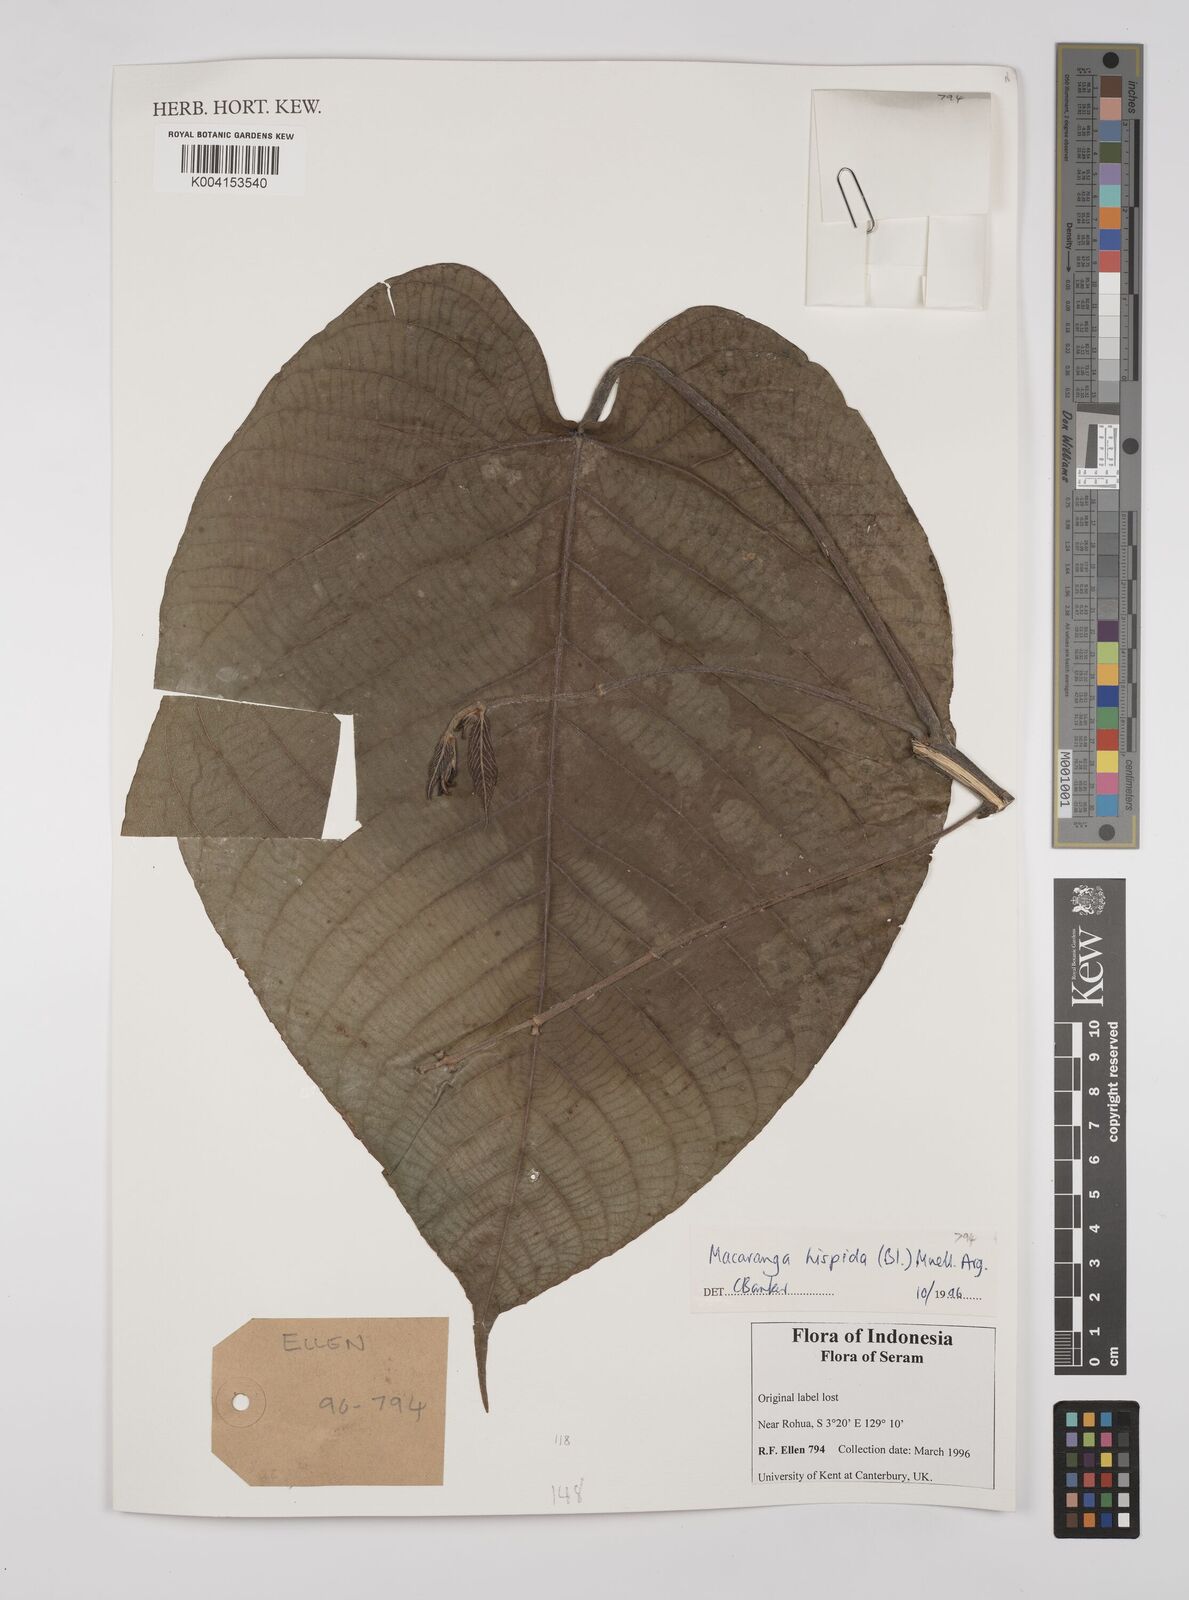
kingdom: Plantae
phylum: Tracheophyta
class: Magnoliopsida
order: Malpighiales
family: Euphorbiaceae
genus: Macaranga
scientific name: Macaranga hispida
